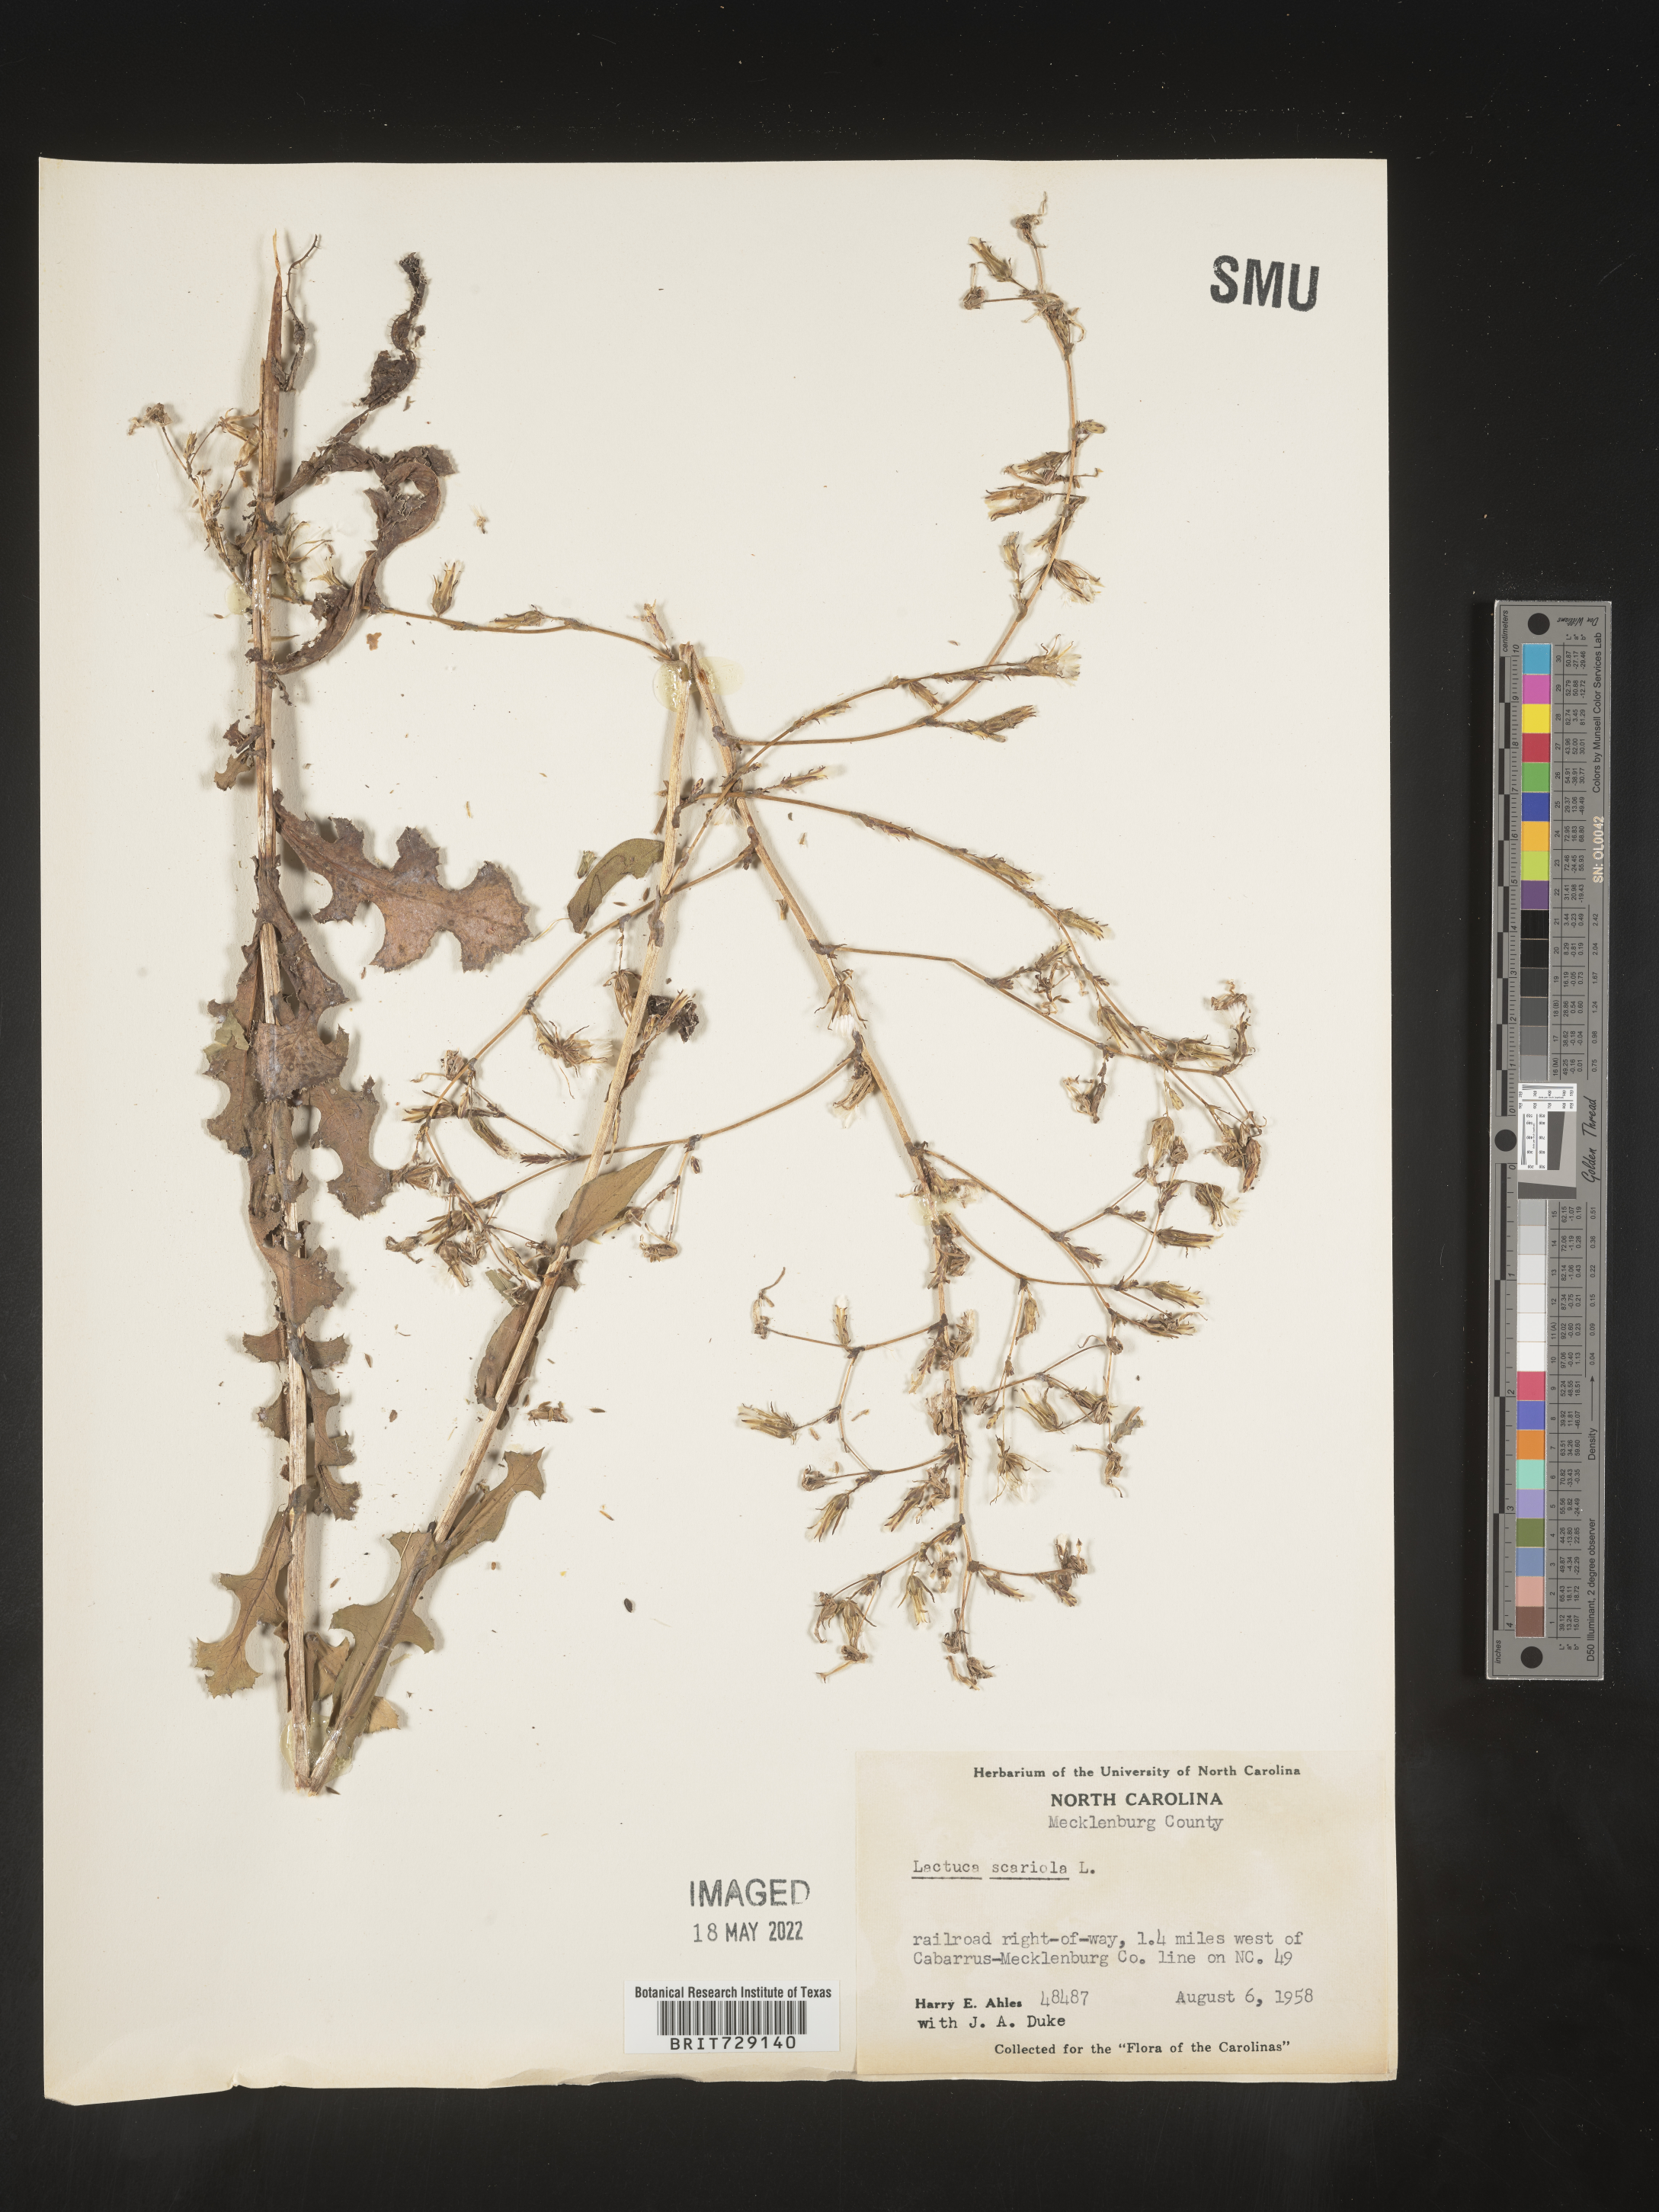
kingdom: Plantae
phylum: Tracheophyta
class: Magnoliopsida
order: Asterales
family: Asteraceae
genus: Lactuca
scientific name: Lactuca serriola
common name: Prickly lettuce
